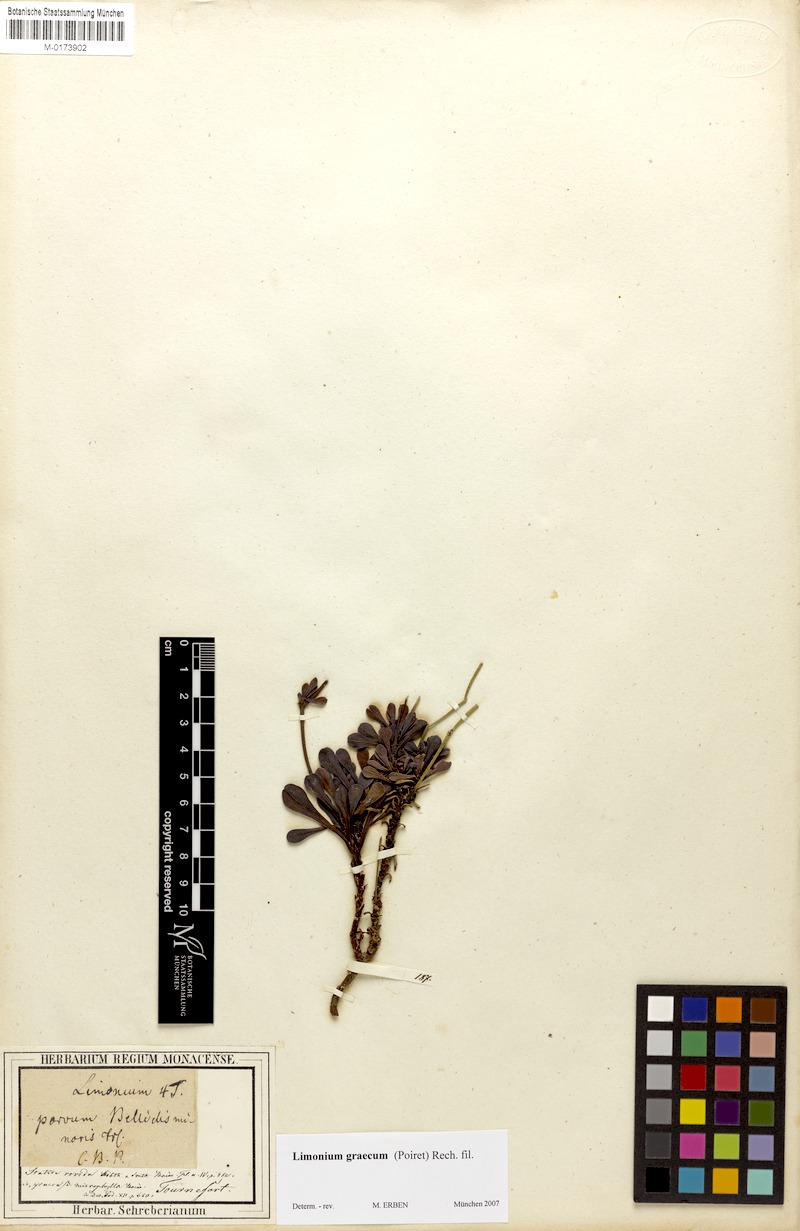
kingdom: Plantae
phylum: Tracheophyta
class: Magnoliopsida
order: Caryophyllales
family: Plumbaginaceae
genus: Limonium
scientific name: Limonium graecum
